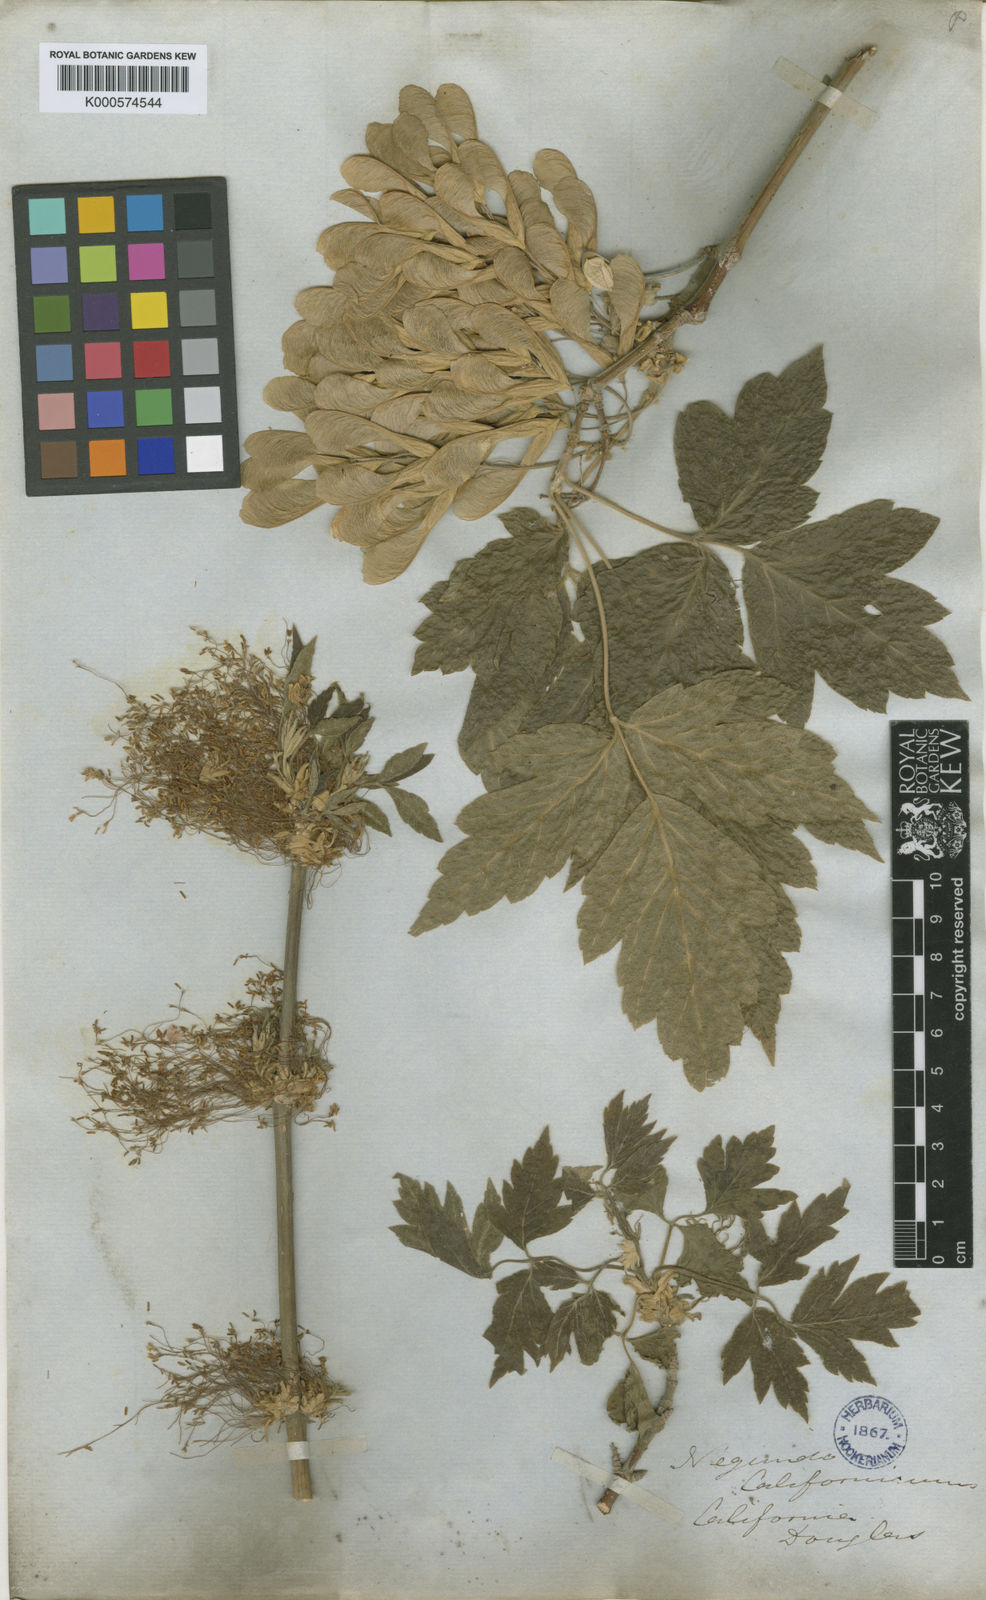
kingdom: Plantae
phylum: Tracheophyta
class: Magnoliopsida
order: Sapindales
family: Sapindaceae
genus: Acer
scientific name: Acer negundo
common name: Ashleaf maple
